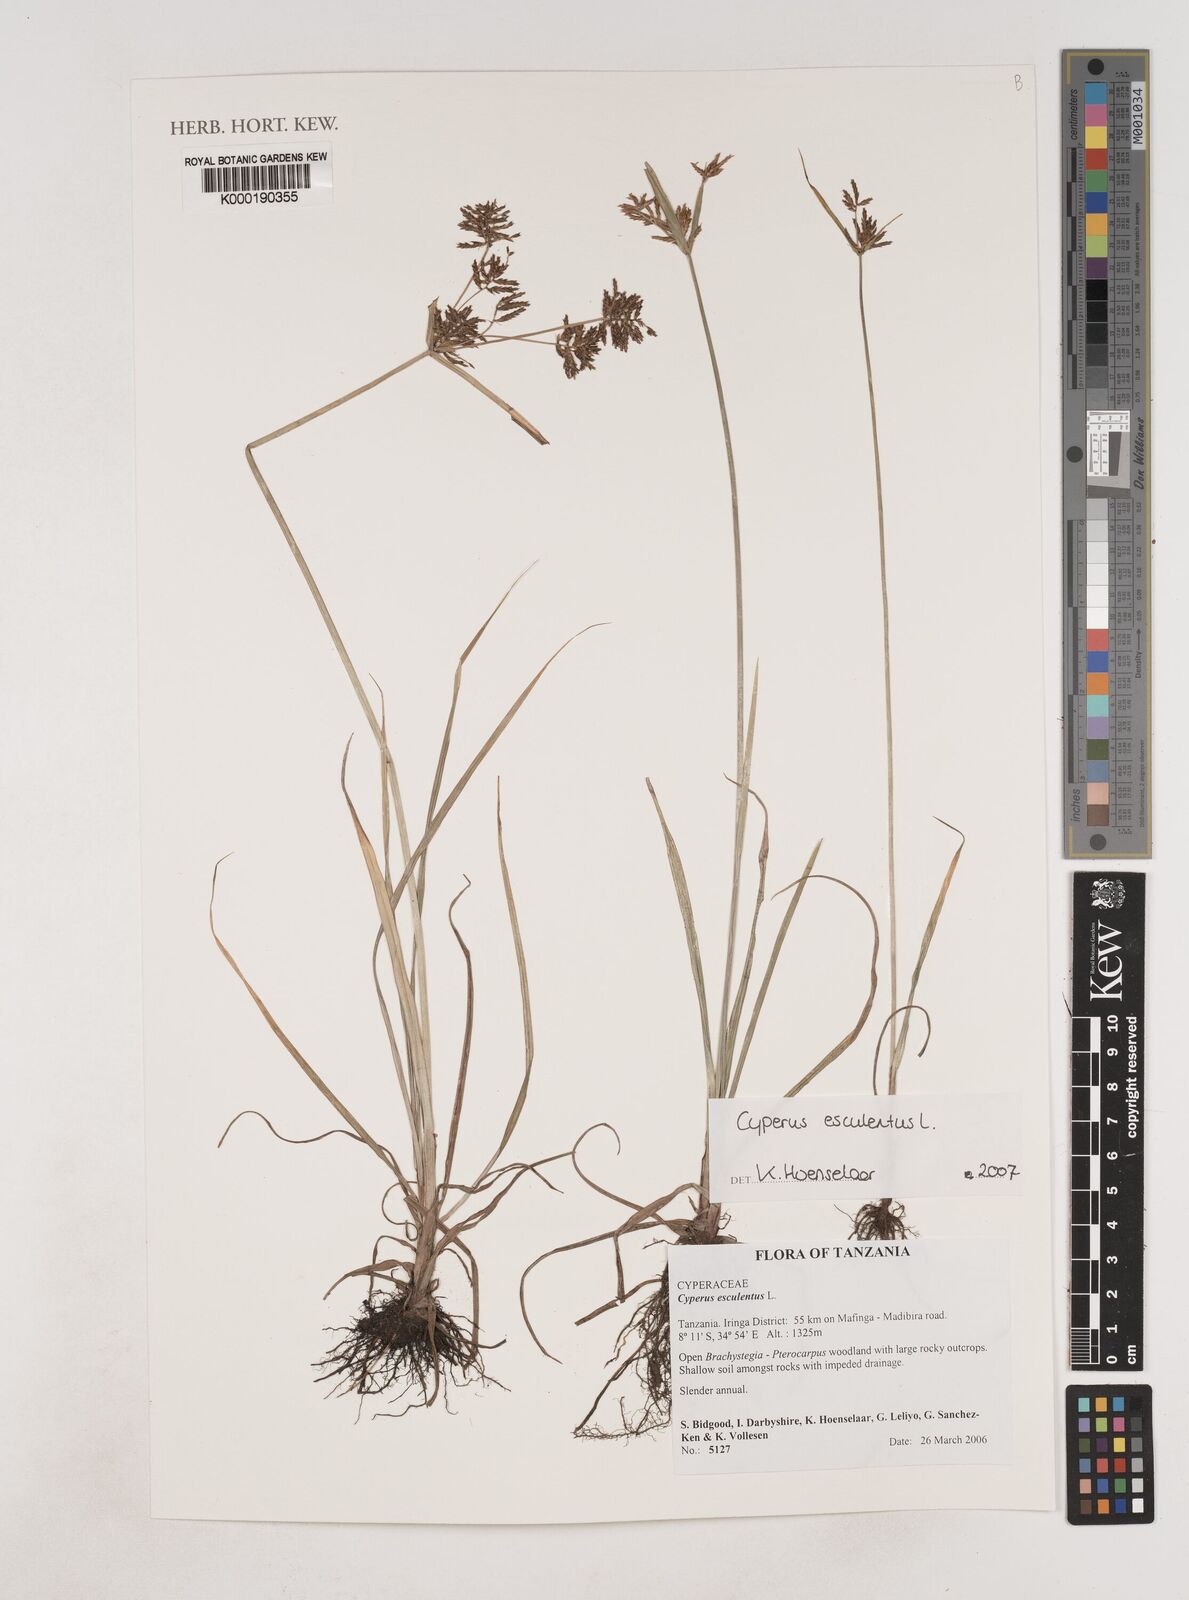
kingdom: Plantae
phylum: Tracheophyta
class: Liliopsida
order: Poales
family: Cyperaceae
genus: Cyperus
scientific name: Cyperus esculentus
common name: Yellow nutsedge
